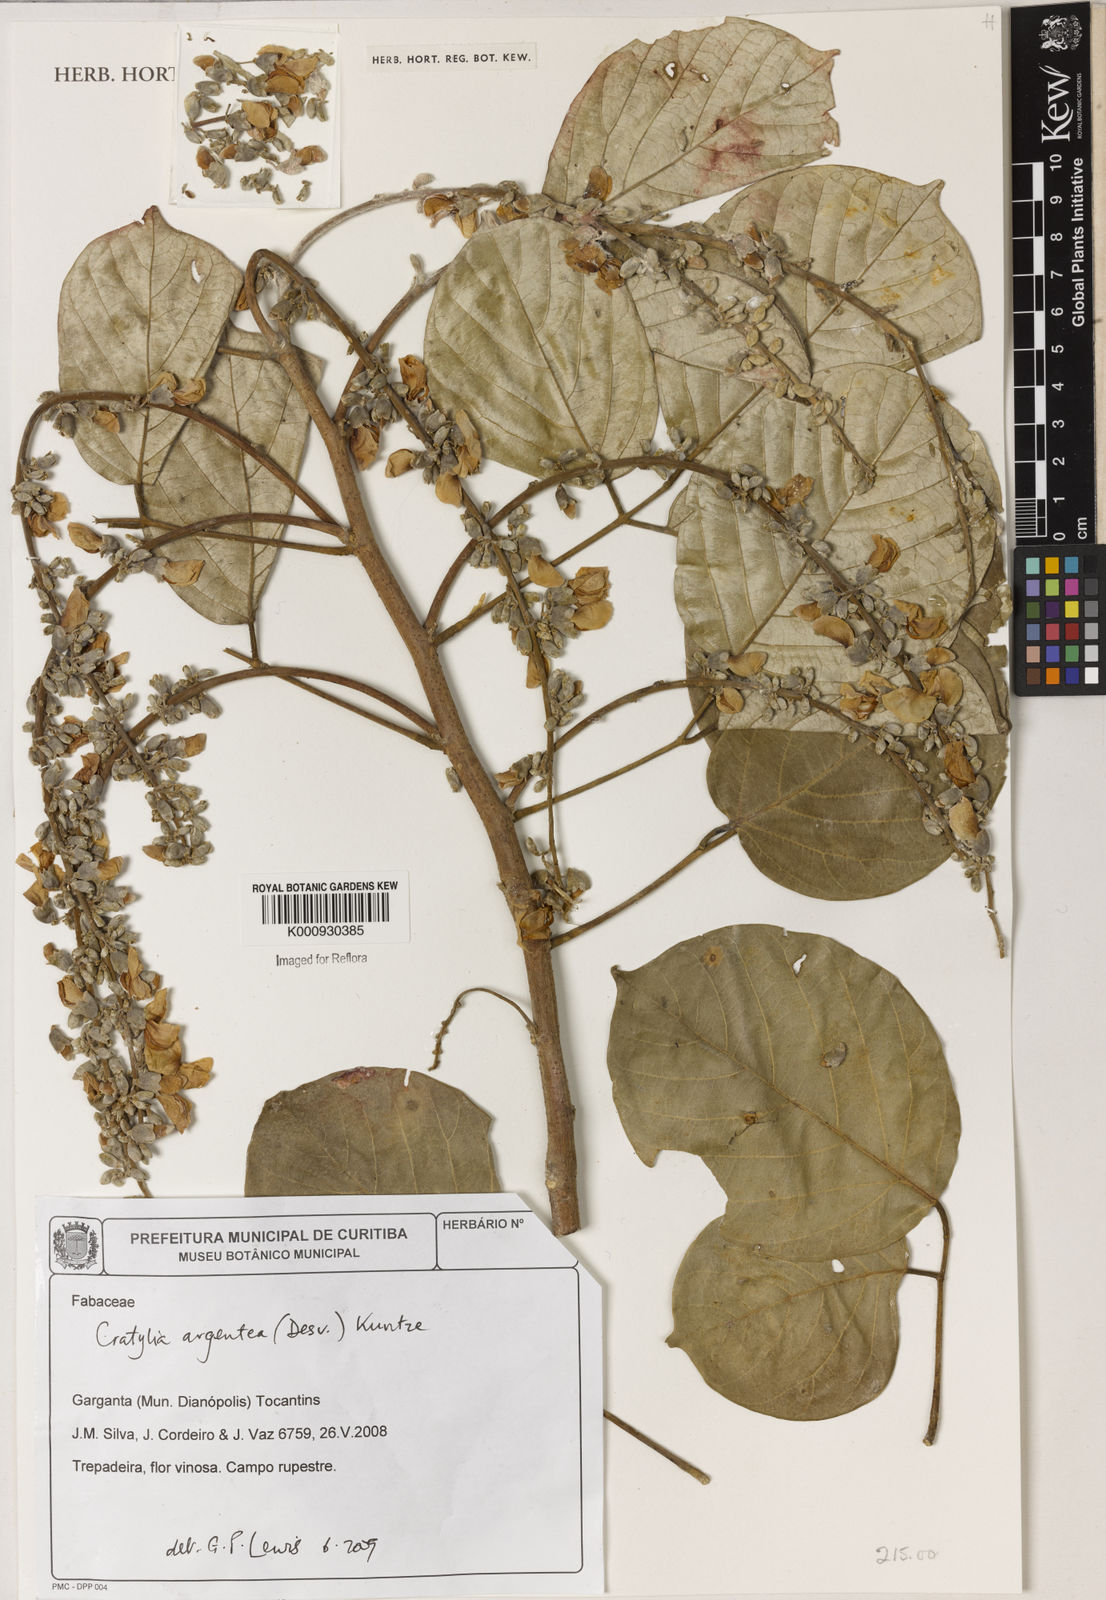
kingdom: Plantae
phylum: Tracheophyta
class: Magnoliopsida
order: Fabales
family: Fabaceae
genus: Cratylia
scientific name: Cratylia argentea
